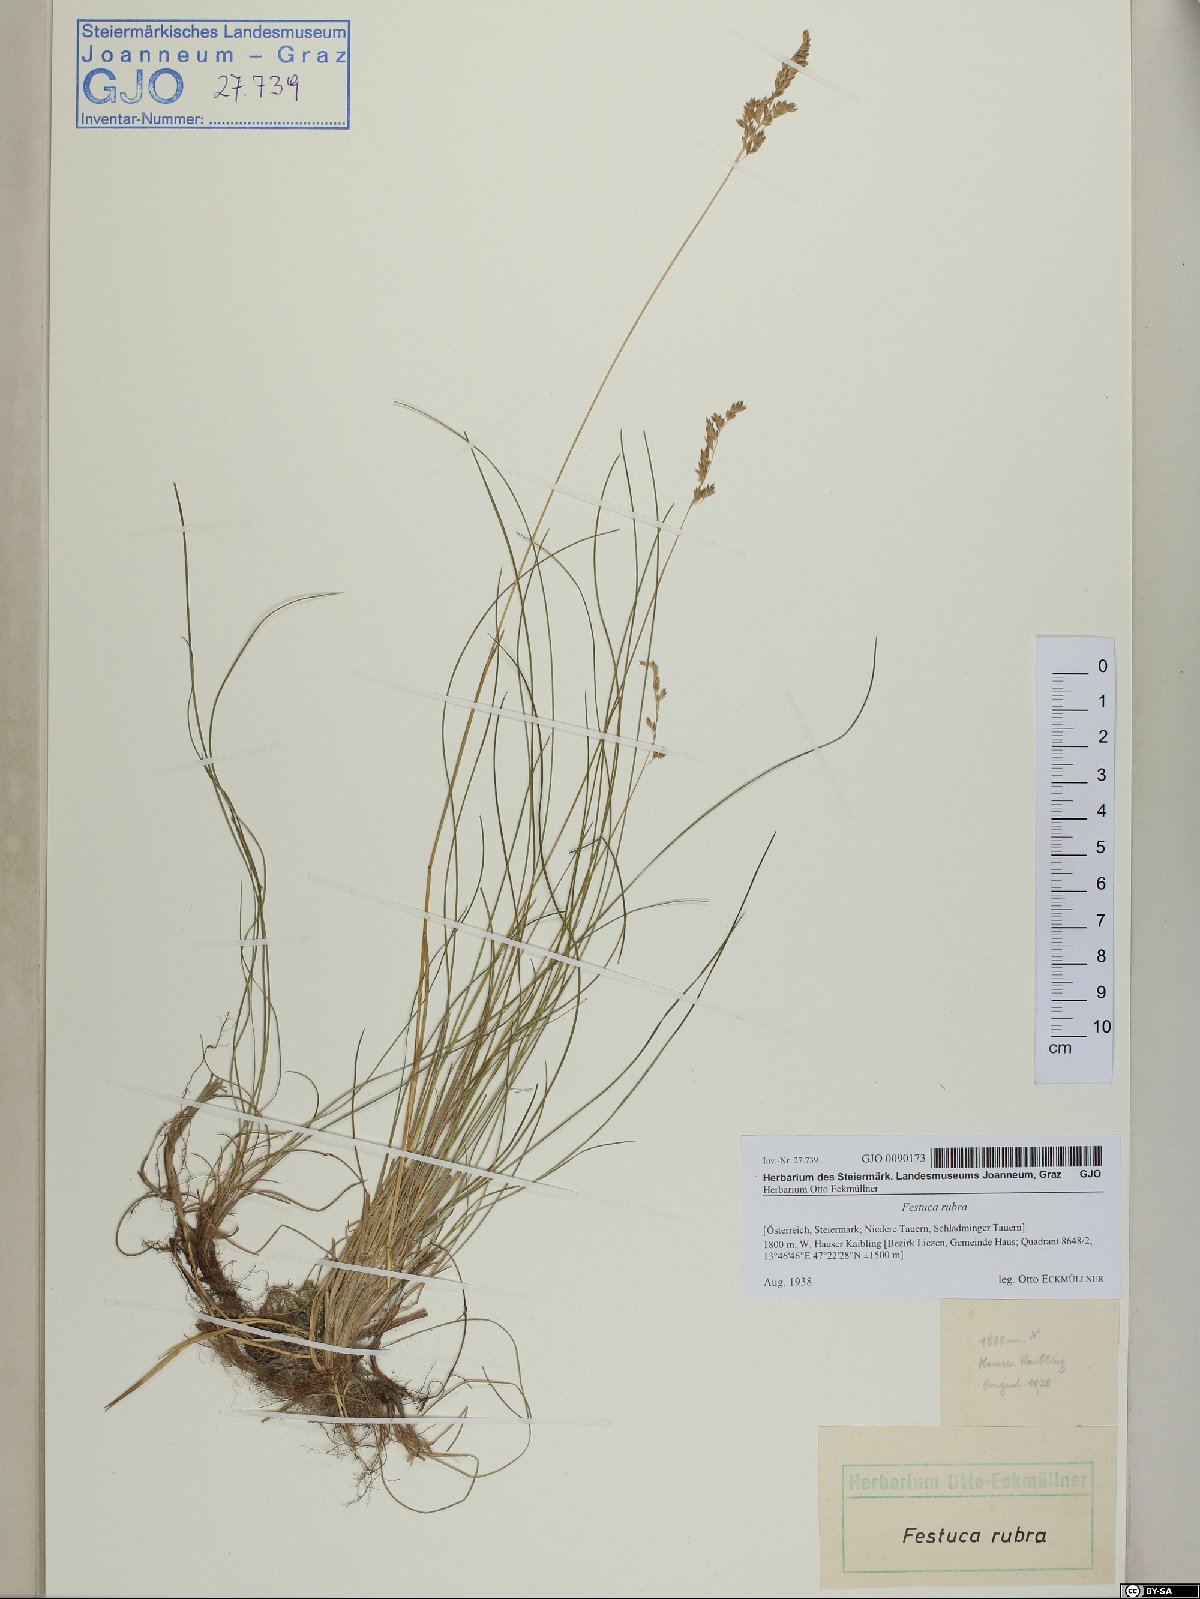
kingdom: Plantae
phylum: Tracheophyta
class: Liliopsida
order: Poales
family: Poaceae
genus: Poa
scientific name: Poa stiriaca
